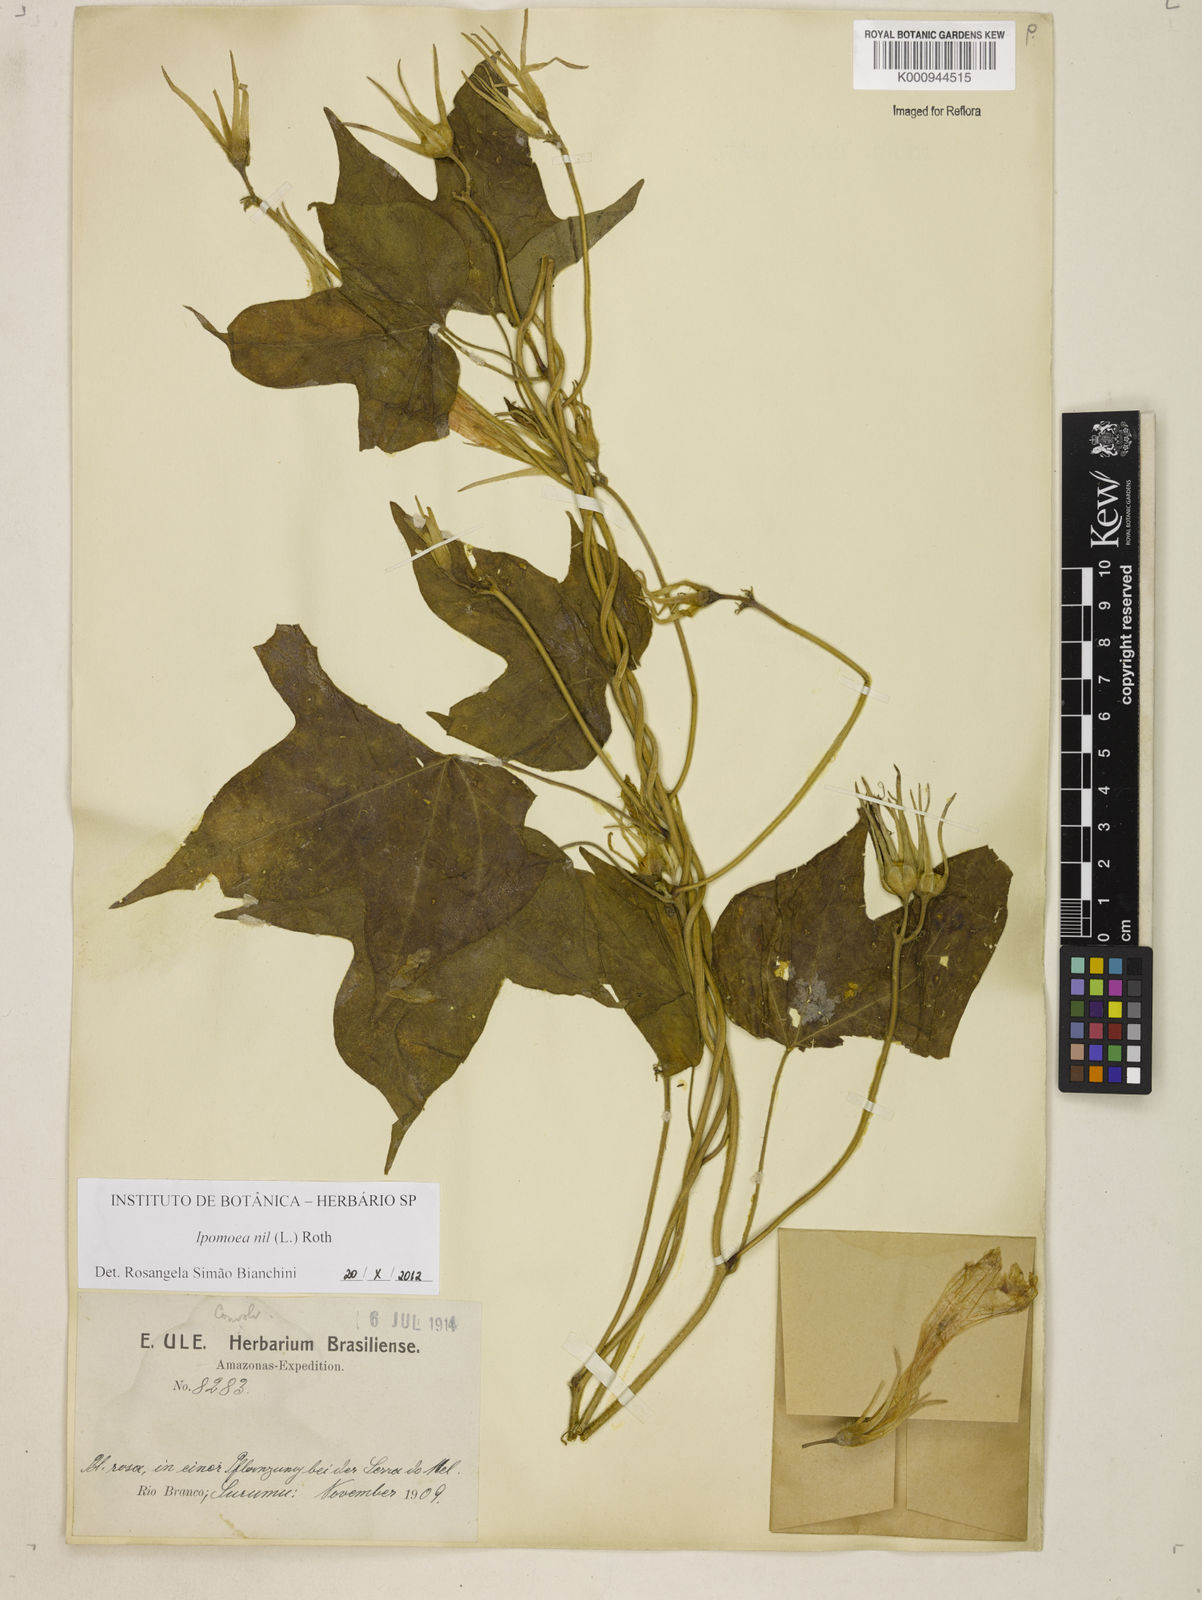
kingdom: Plantae
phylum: Tracheophyta
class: Magnoliopsida
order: Solanales
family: Convolvulaceae
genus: Ipomoea
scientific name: Ipomoea nil
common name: Japanese morning-glory
